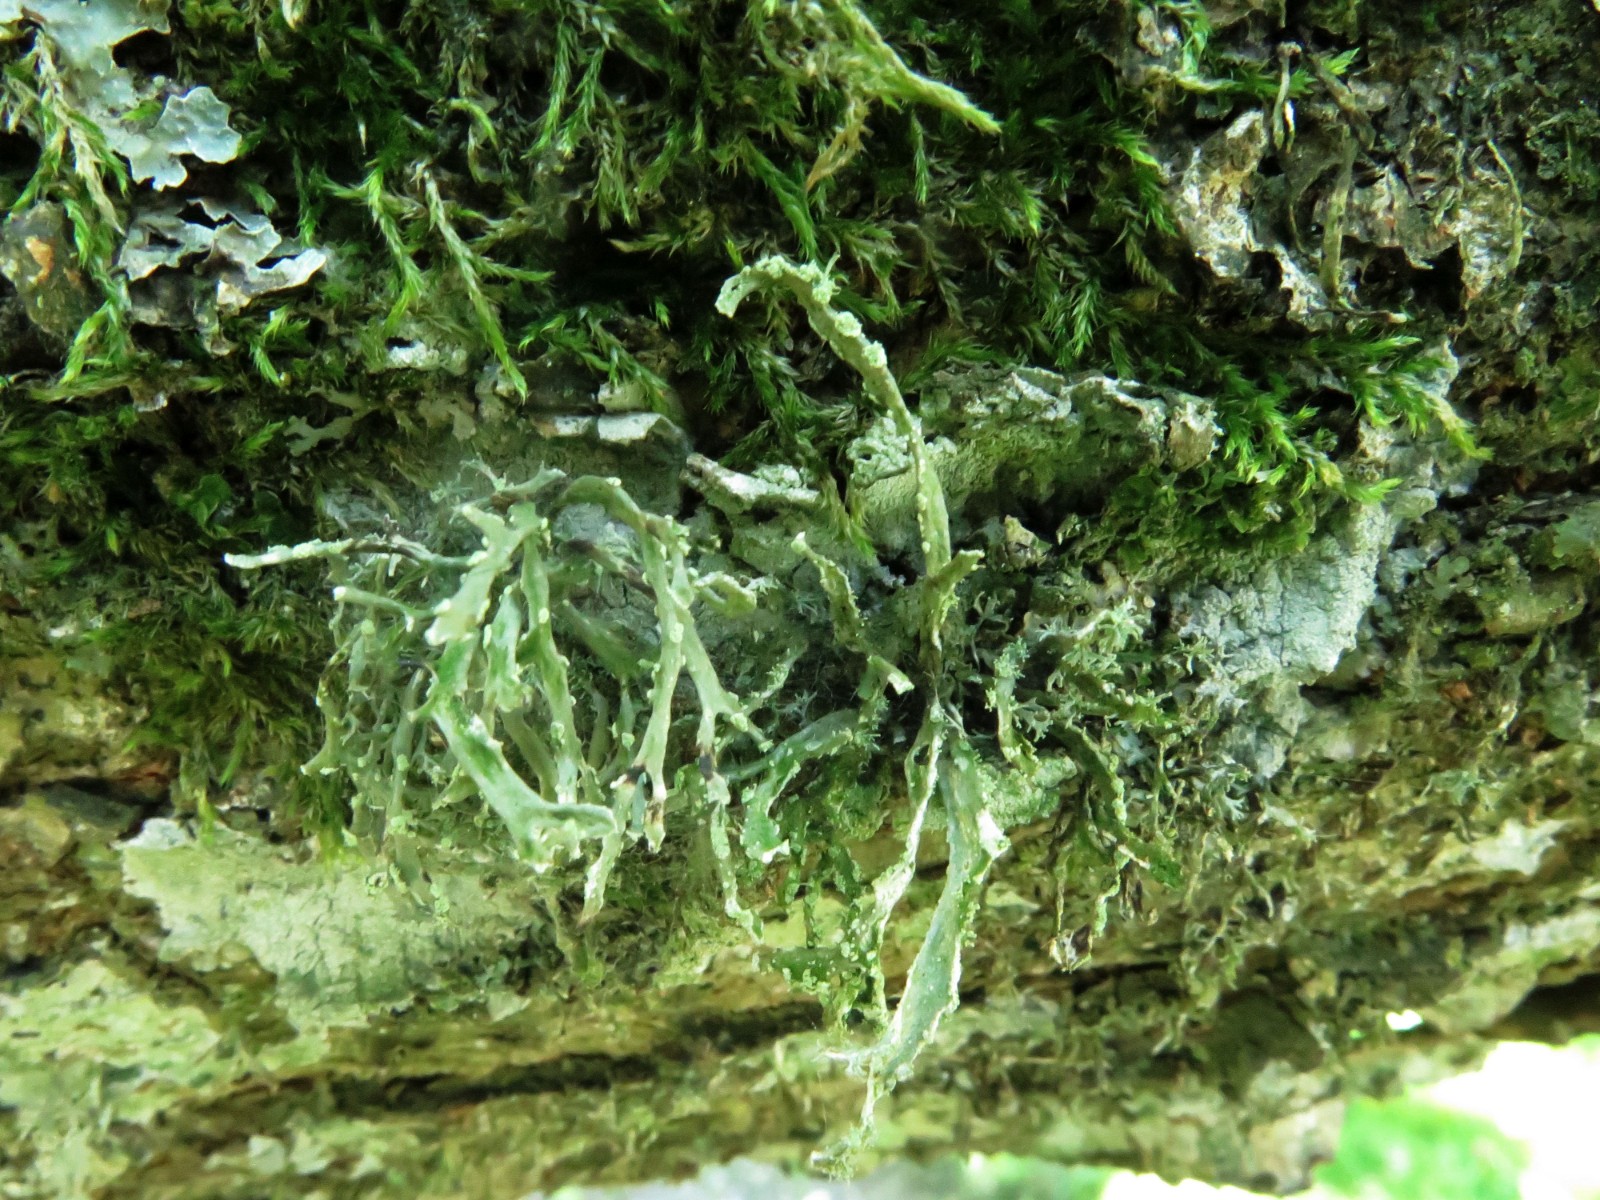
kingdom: Fungi
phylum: Ascomycota
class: Lecanoromycetes
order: Lecanorales
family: Ramalinaceae
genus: Ramalina
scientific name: Ramalina farinacea
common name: melet grenlav
